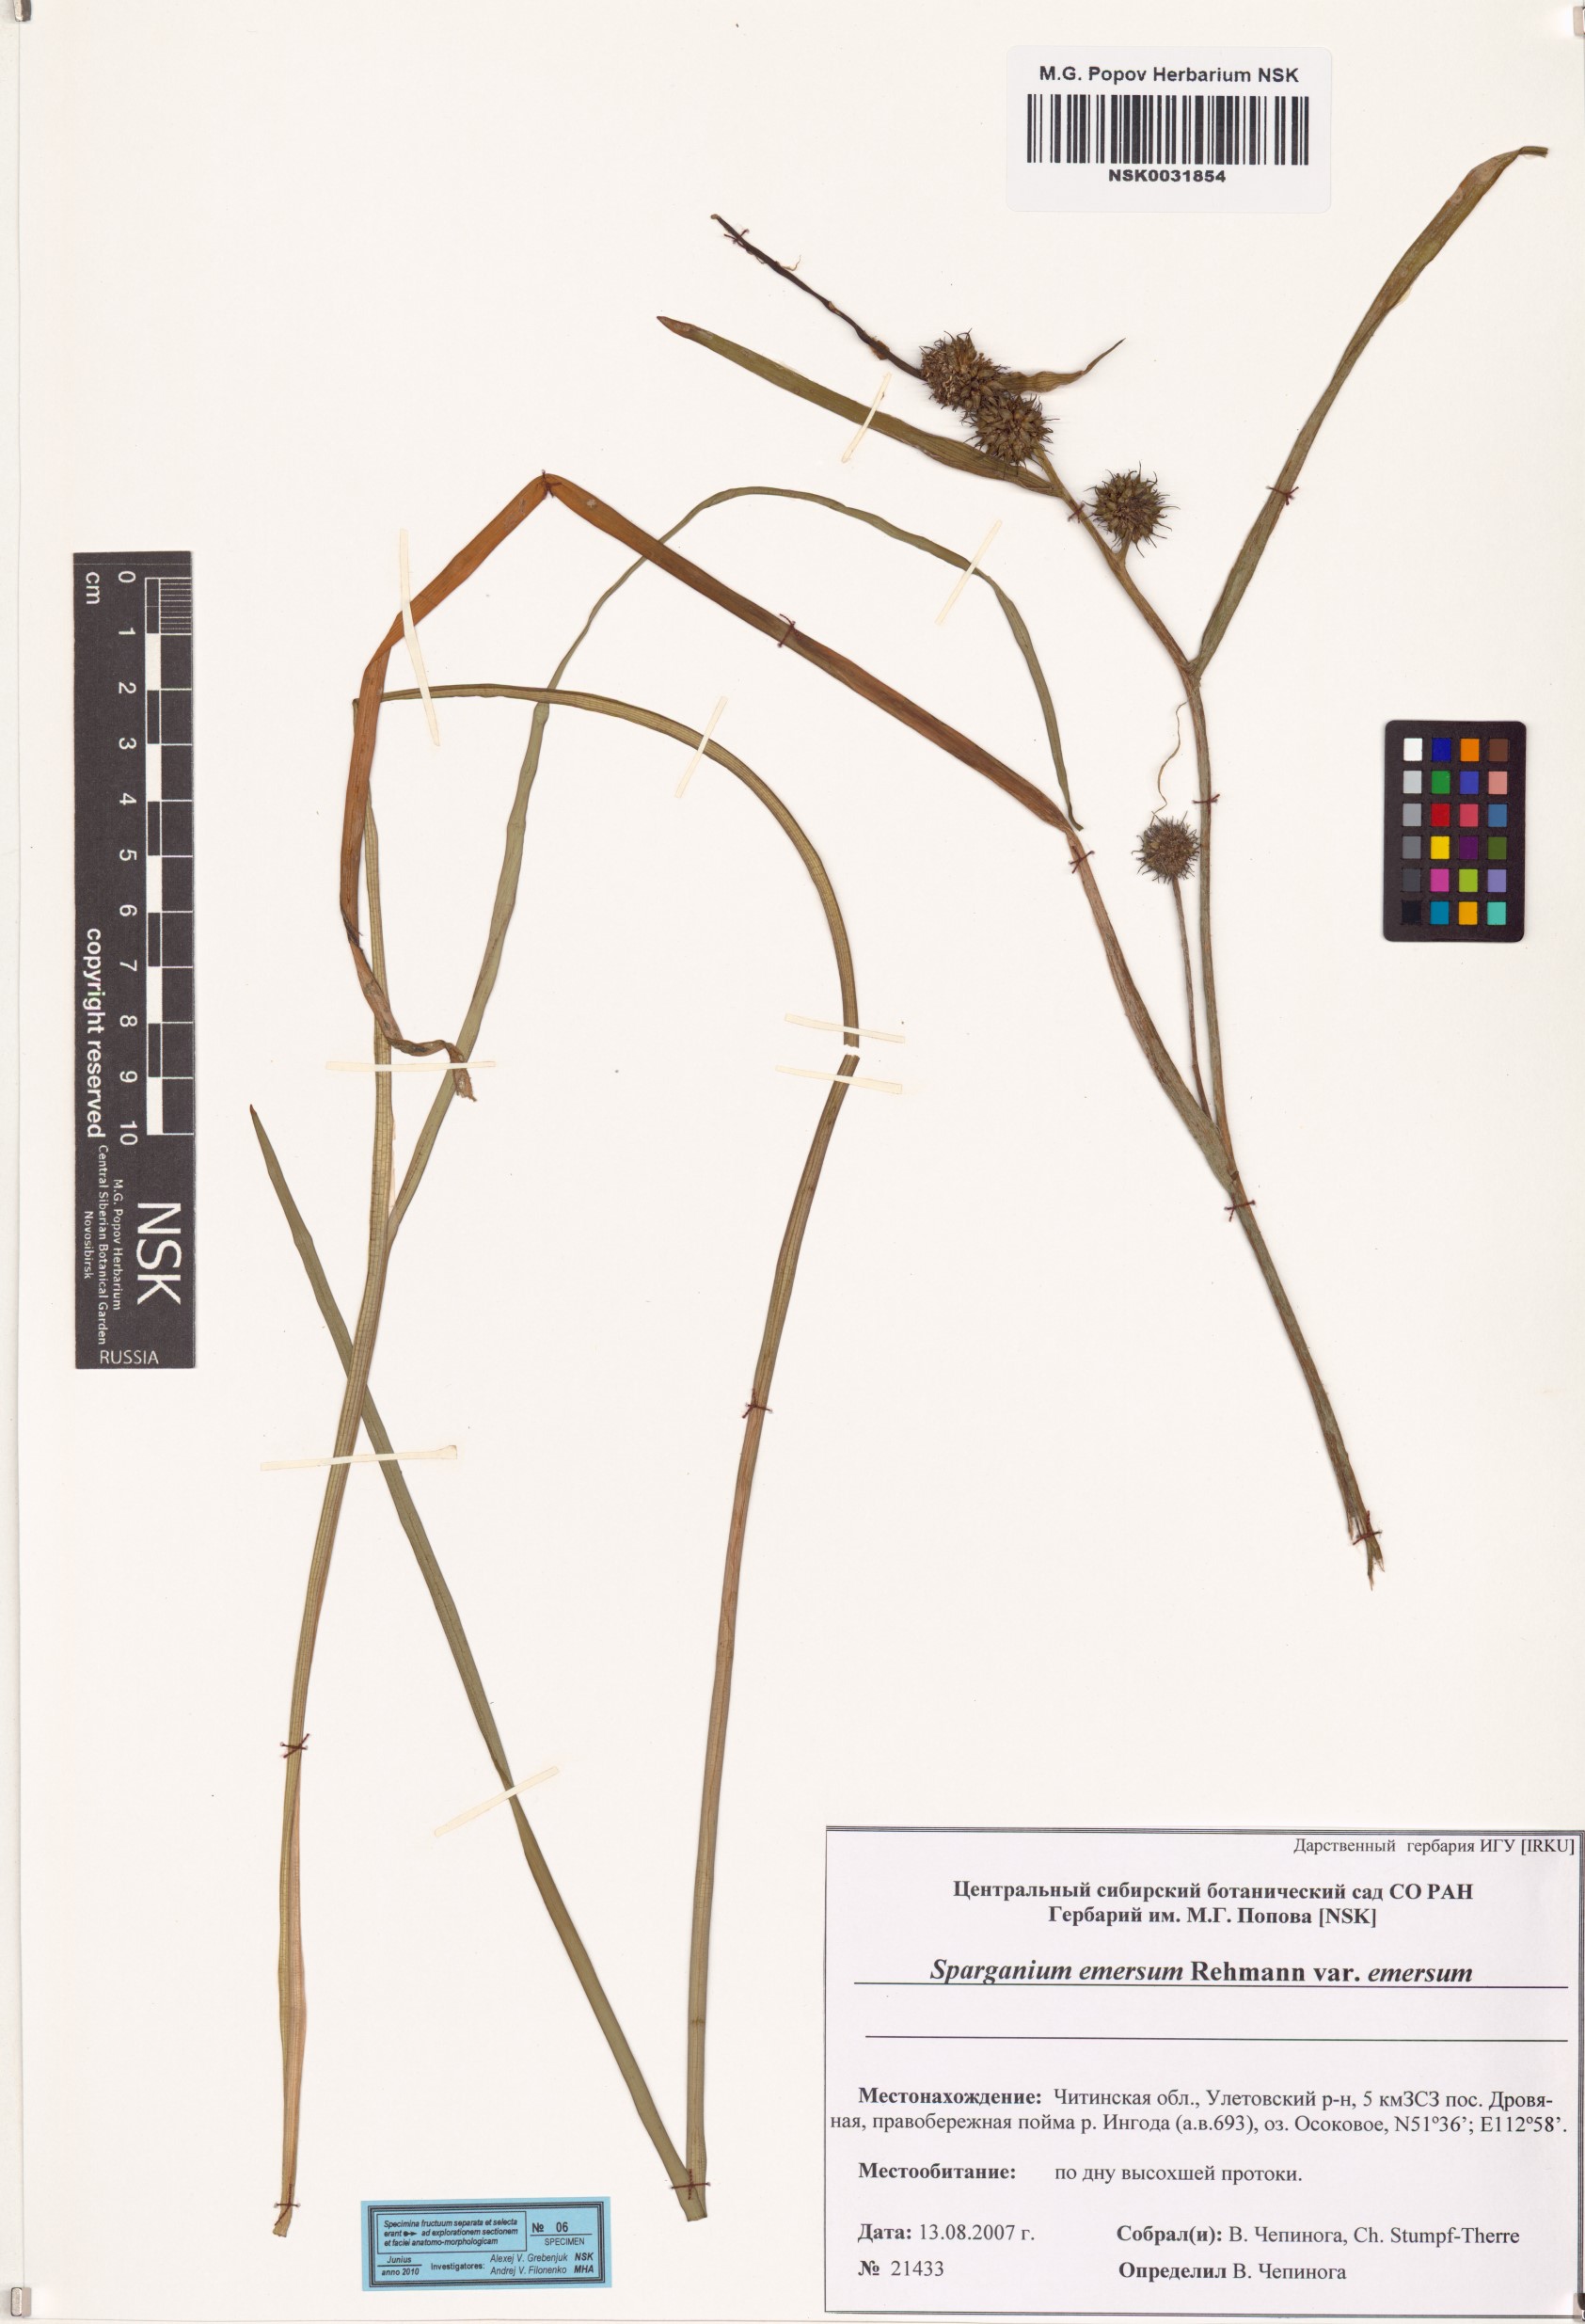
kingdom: Plantae
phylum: Tracheophyta
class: Liliopsida
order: Poales
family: Typhaceae
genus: Sparganium
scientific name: Sparganium emersum
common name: Unbranched bur-reed
